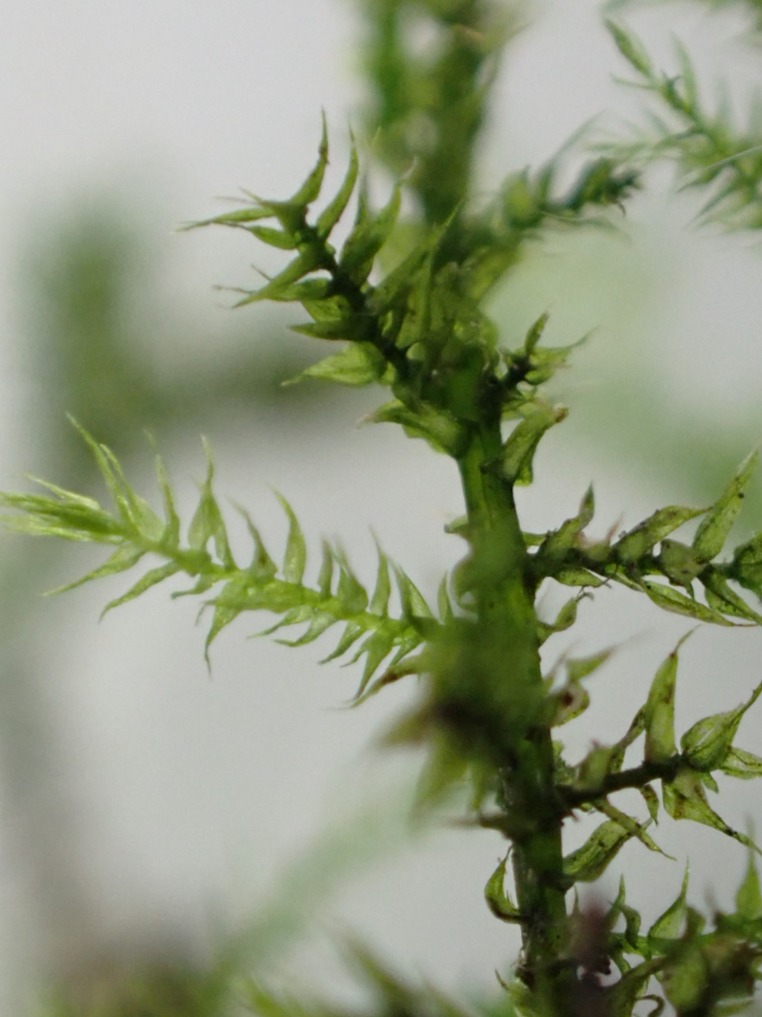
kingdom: Plantae
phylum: Bryophyta
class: Bryopsida
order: Hypnales
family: Brachytheciaceae
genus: Kindbergia
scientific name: Kindbergia praelonga
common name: Forskelligbladet vortetand
